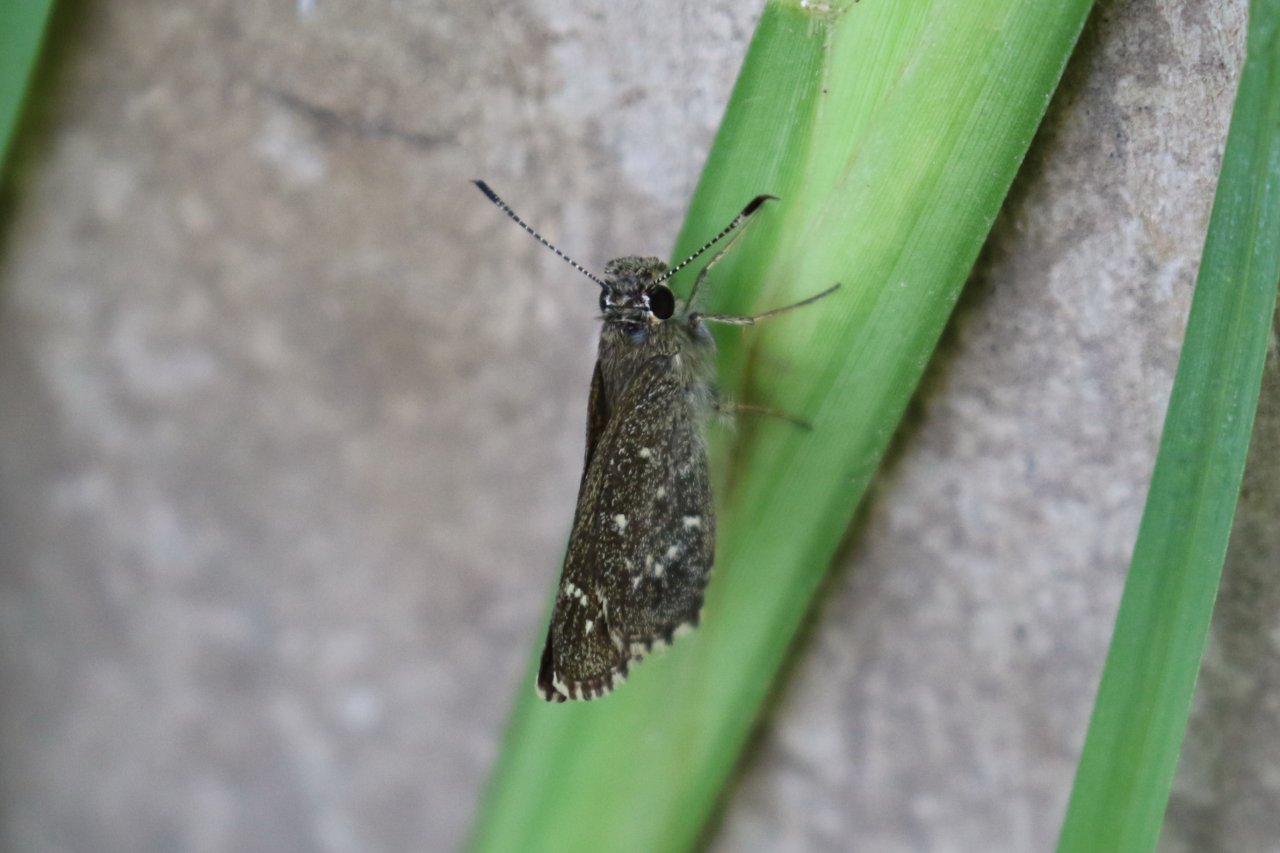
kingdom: Animalia
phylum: Arthropoda
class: Insecta
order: Lepidoptera
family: Hesperiidae
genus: Mastor
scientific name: Mastor celia
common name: Celia's Roadside-Skipper
